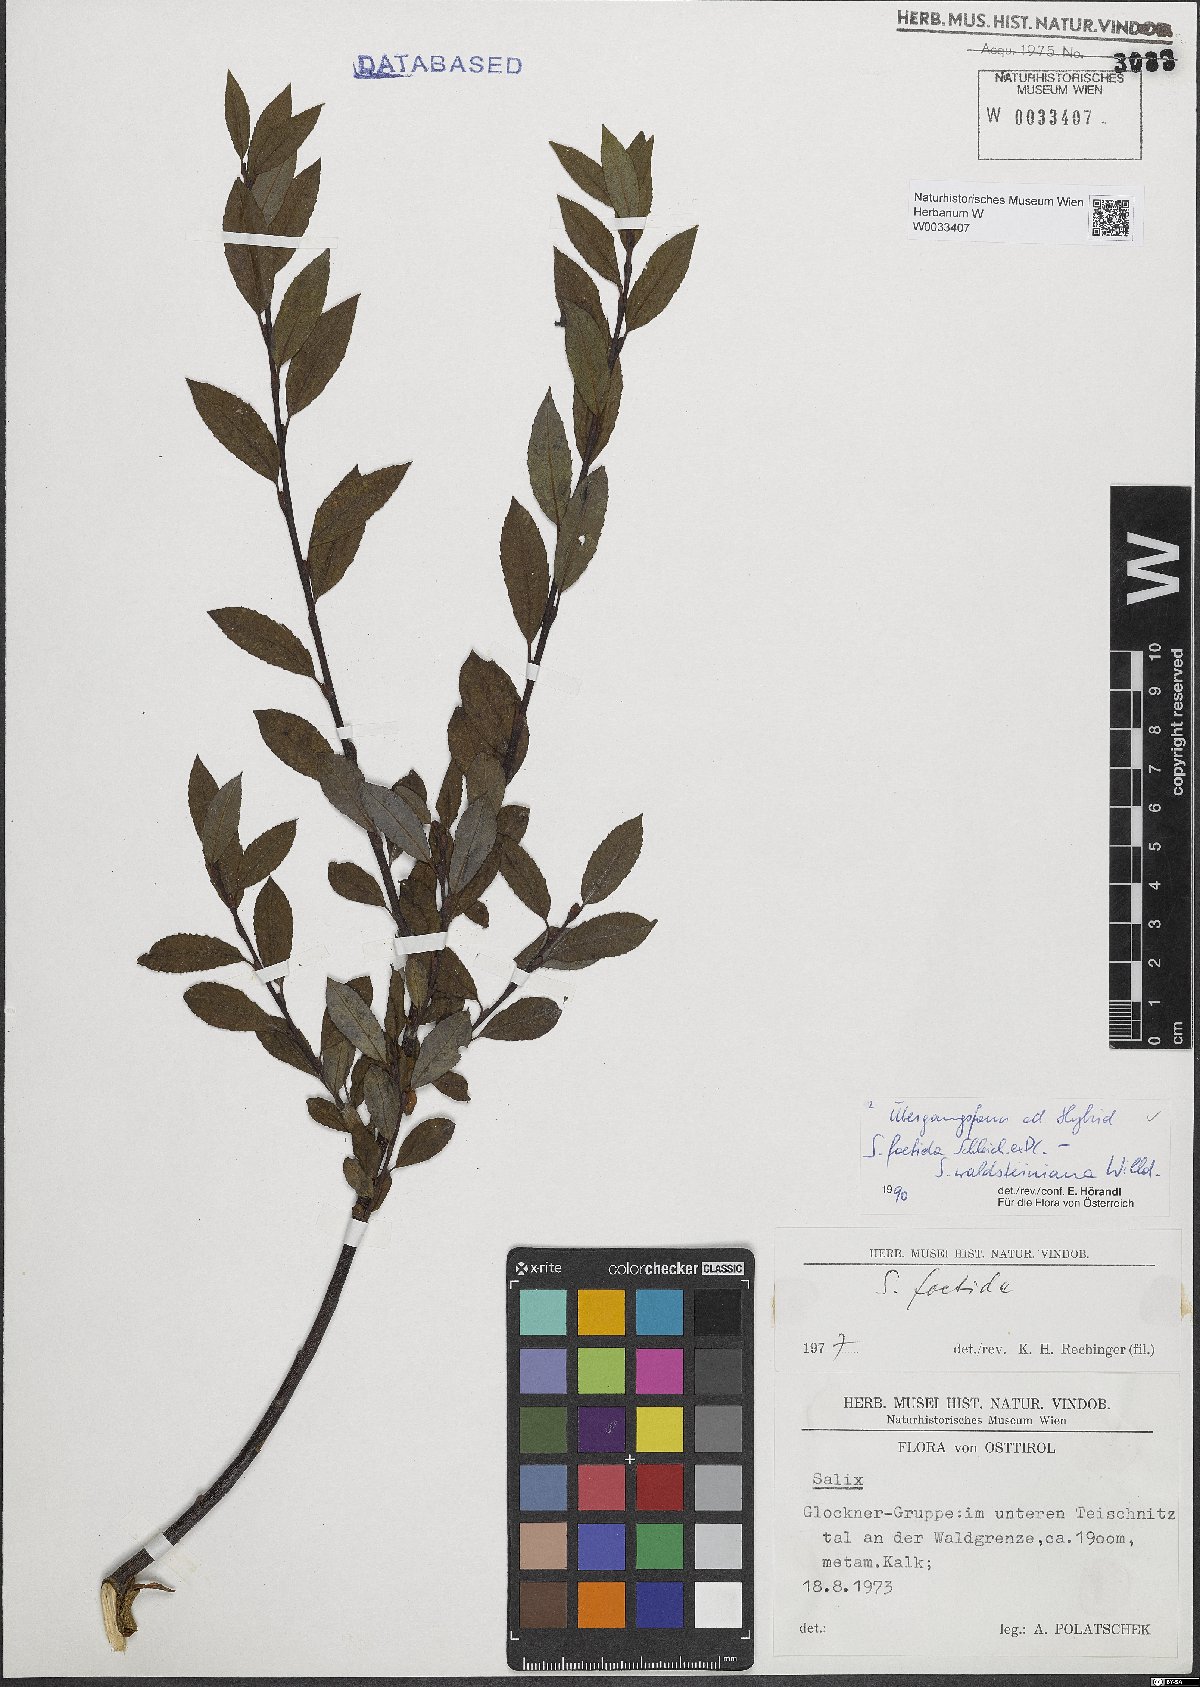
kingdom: Plantae
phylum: Tracheophyta
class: Magnoliopsida
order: Malpighiales
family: Salicaceae
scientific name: Salicaceae
